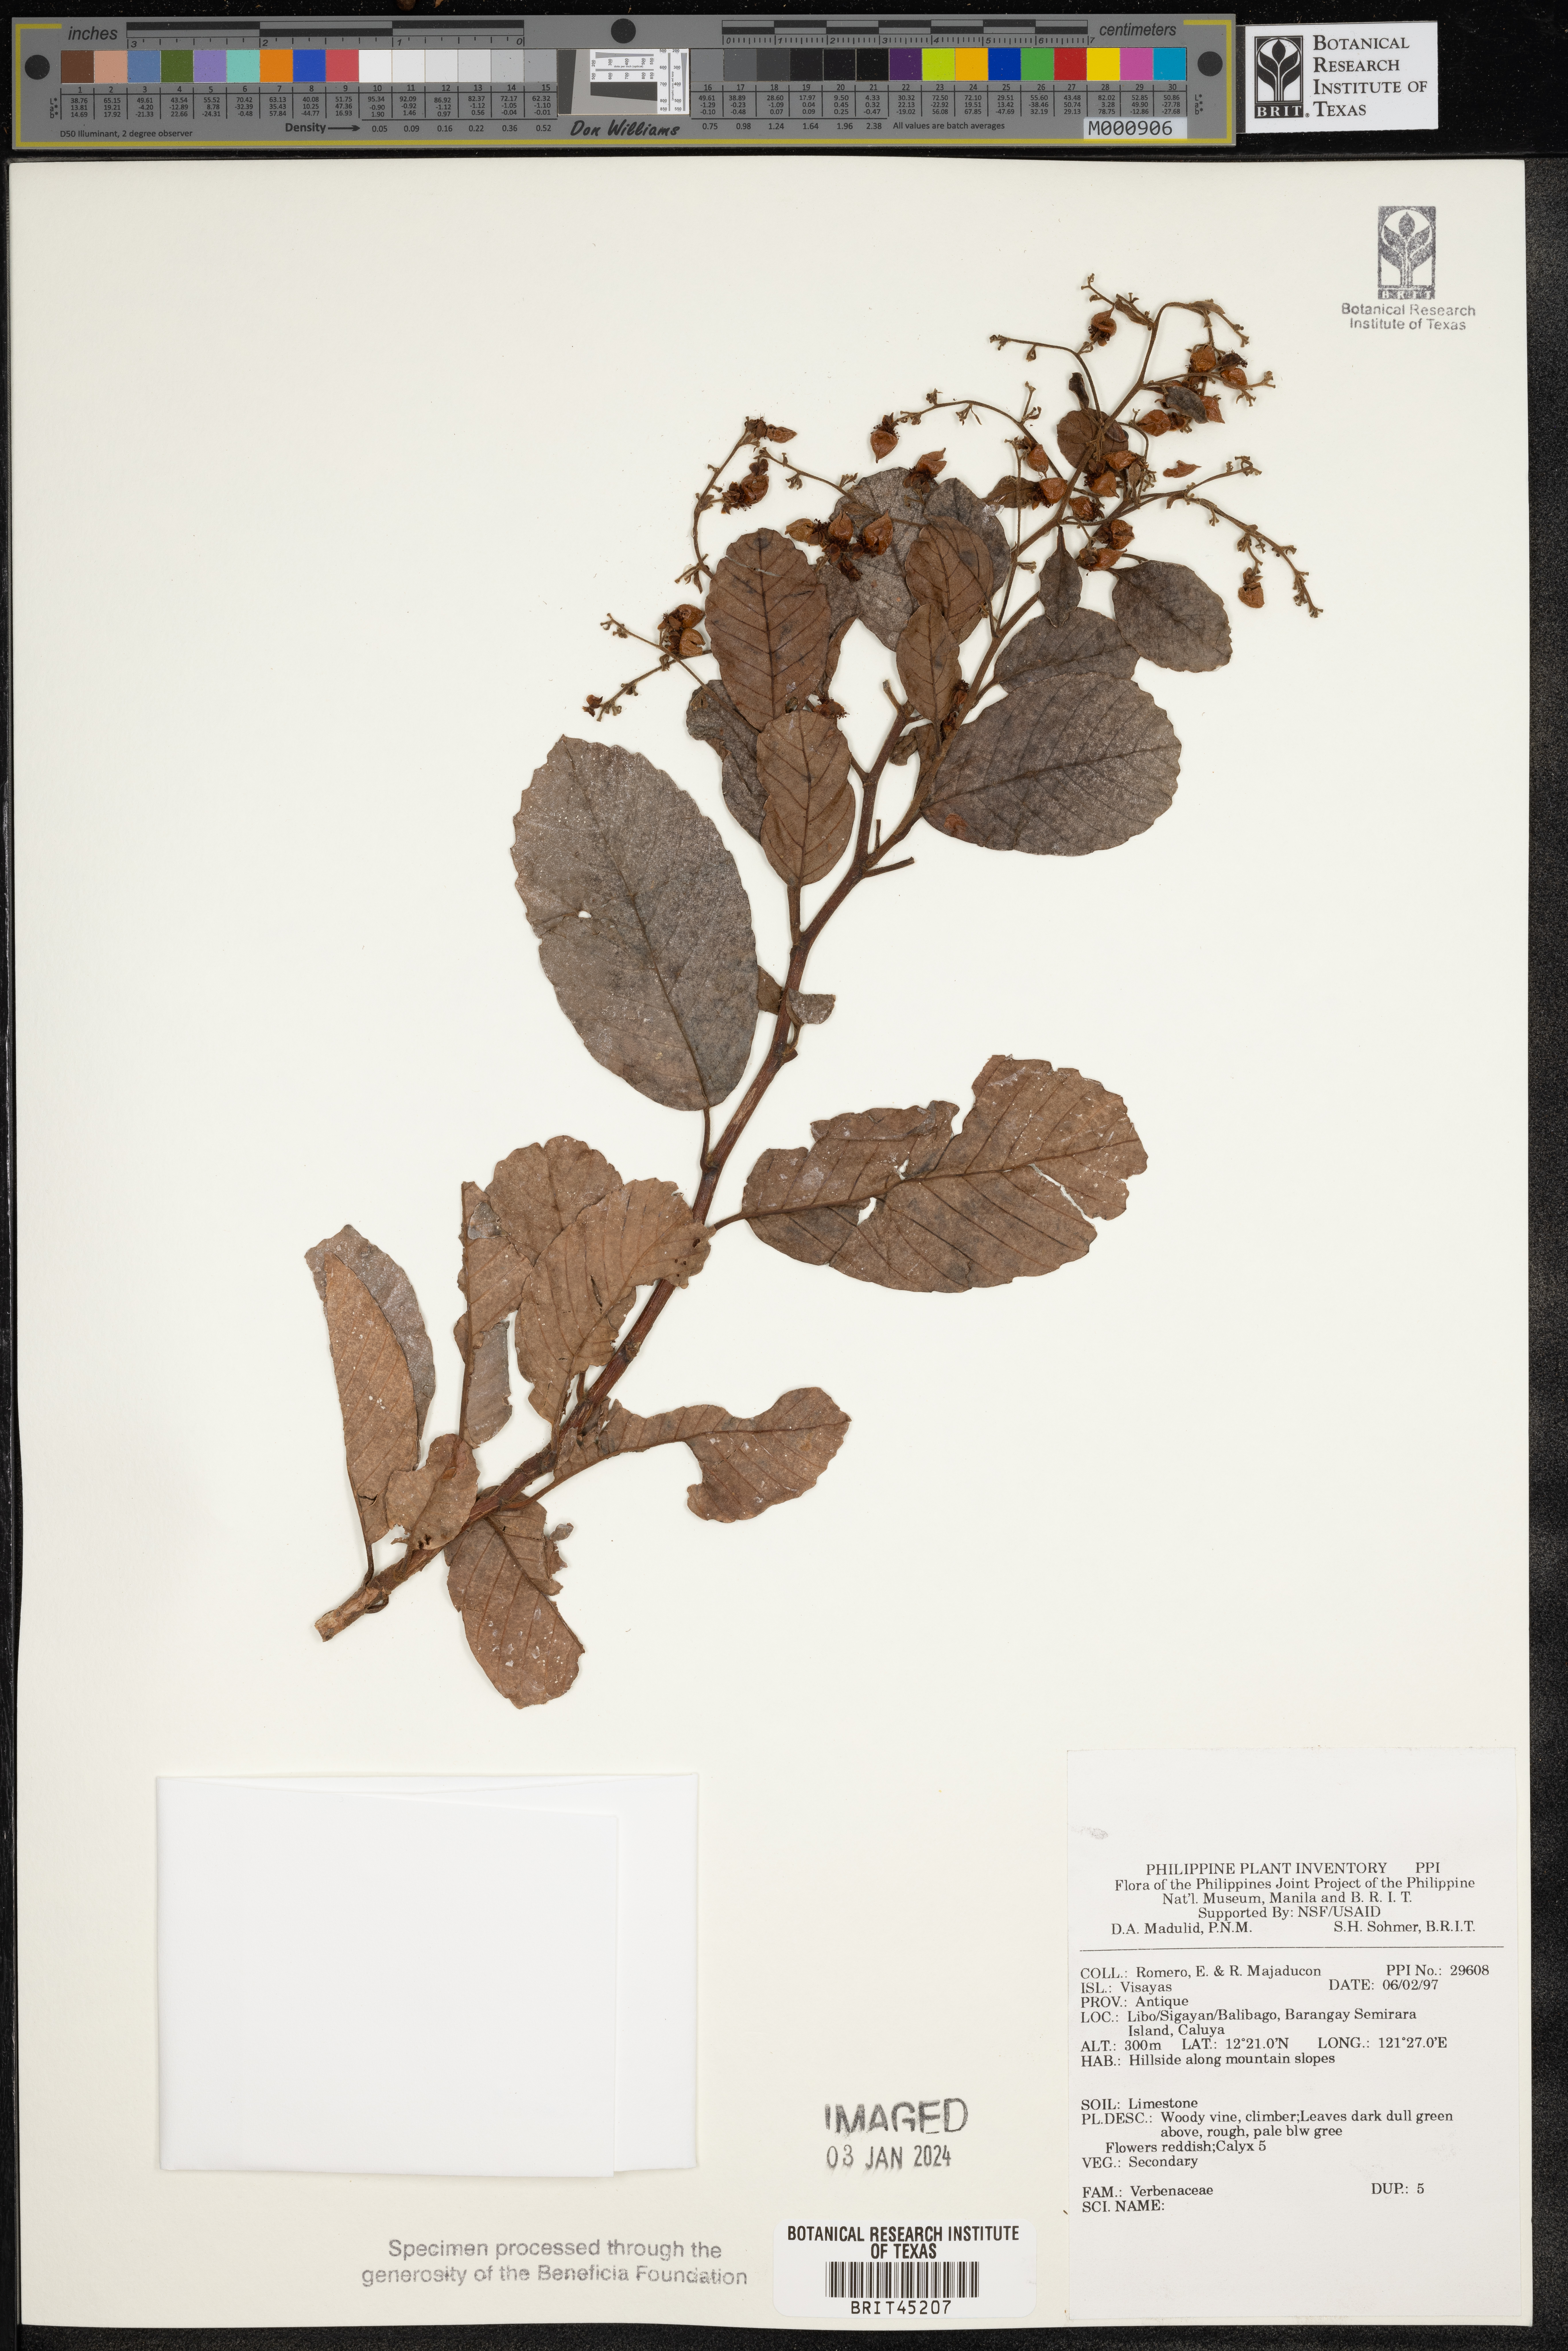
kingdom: Plantae
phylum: Tracheophyta
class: Magnoliopsida
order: Lamiales
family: Verbenaceae
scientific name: Verbenaceae
